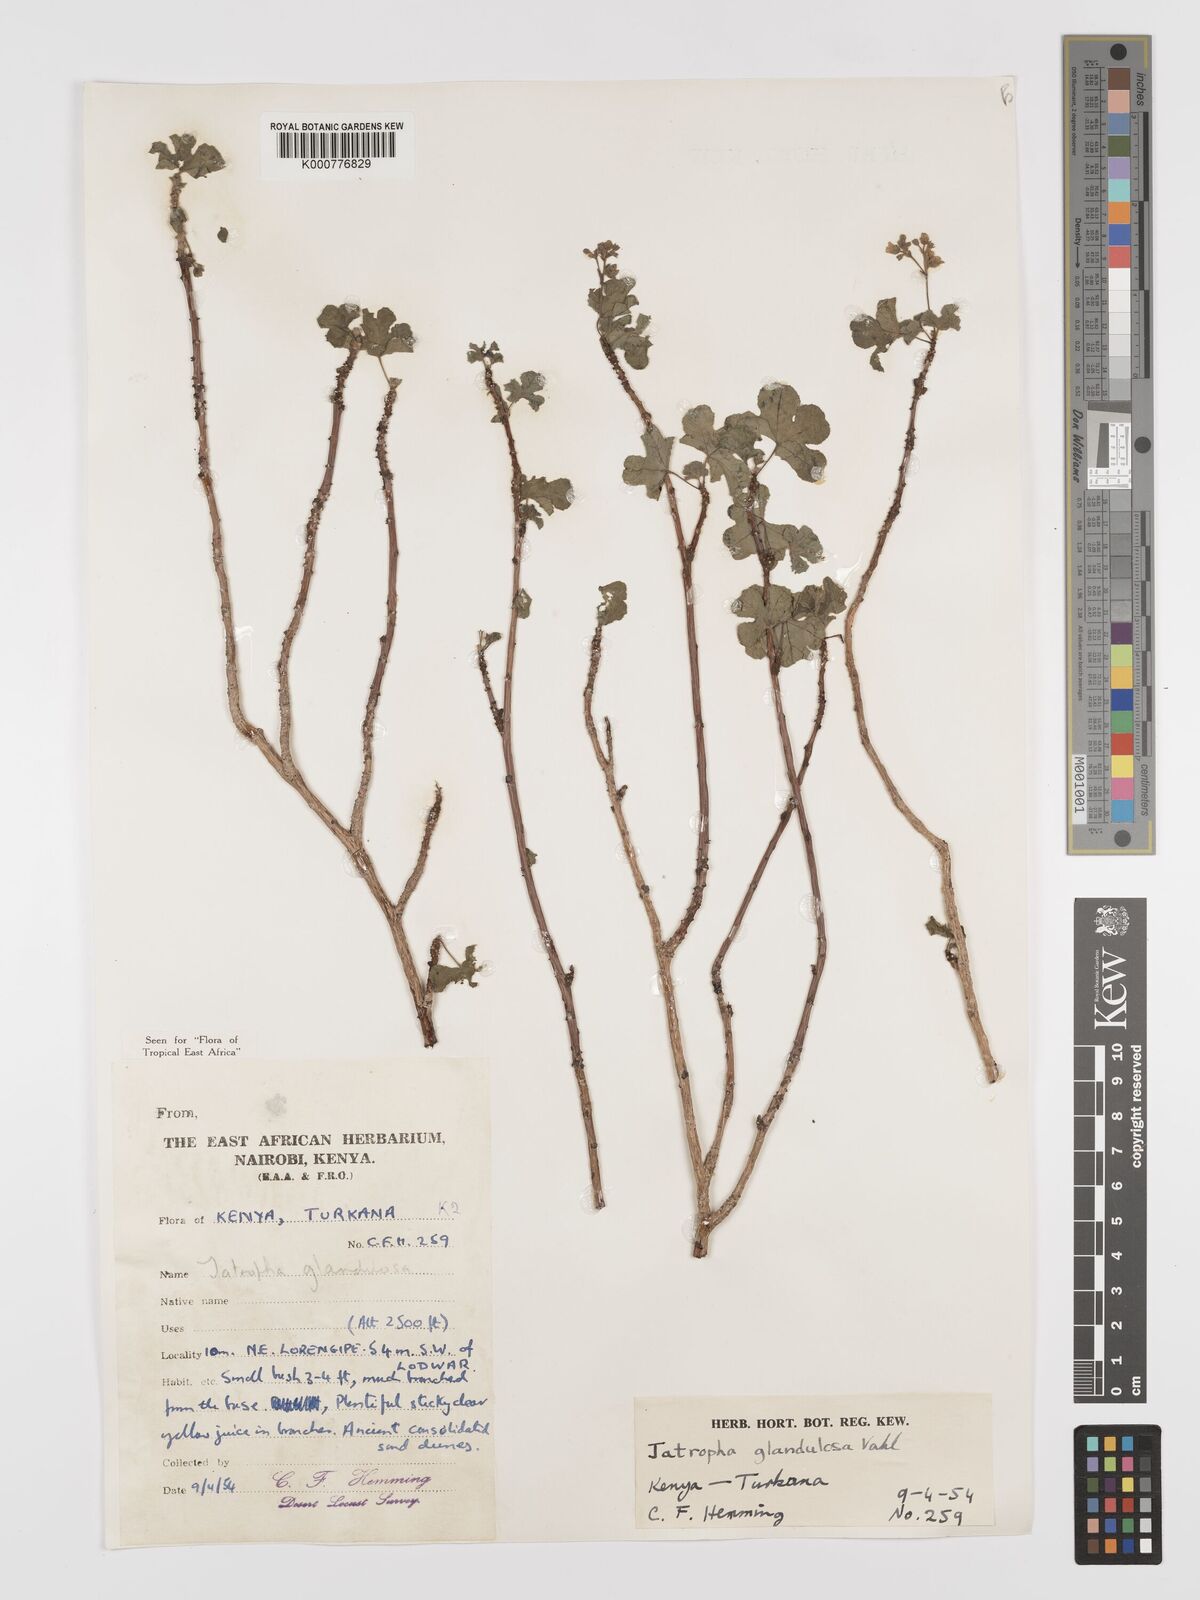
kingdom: Plantae
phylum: Tracheophyta
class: Magnoliopsida
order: Malpighiales
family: Euphorbiaceae
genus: Jatropha
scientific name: Jatropha pelargoniifolia
